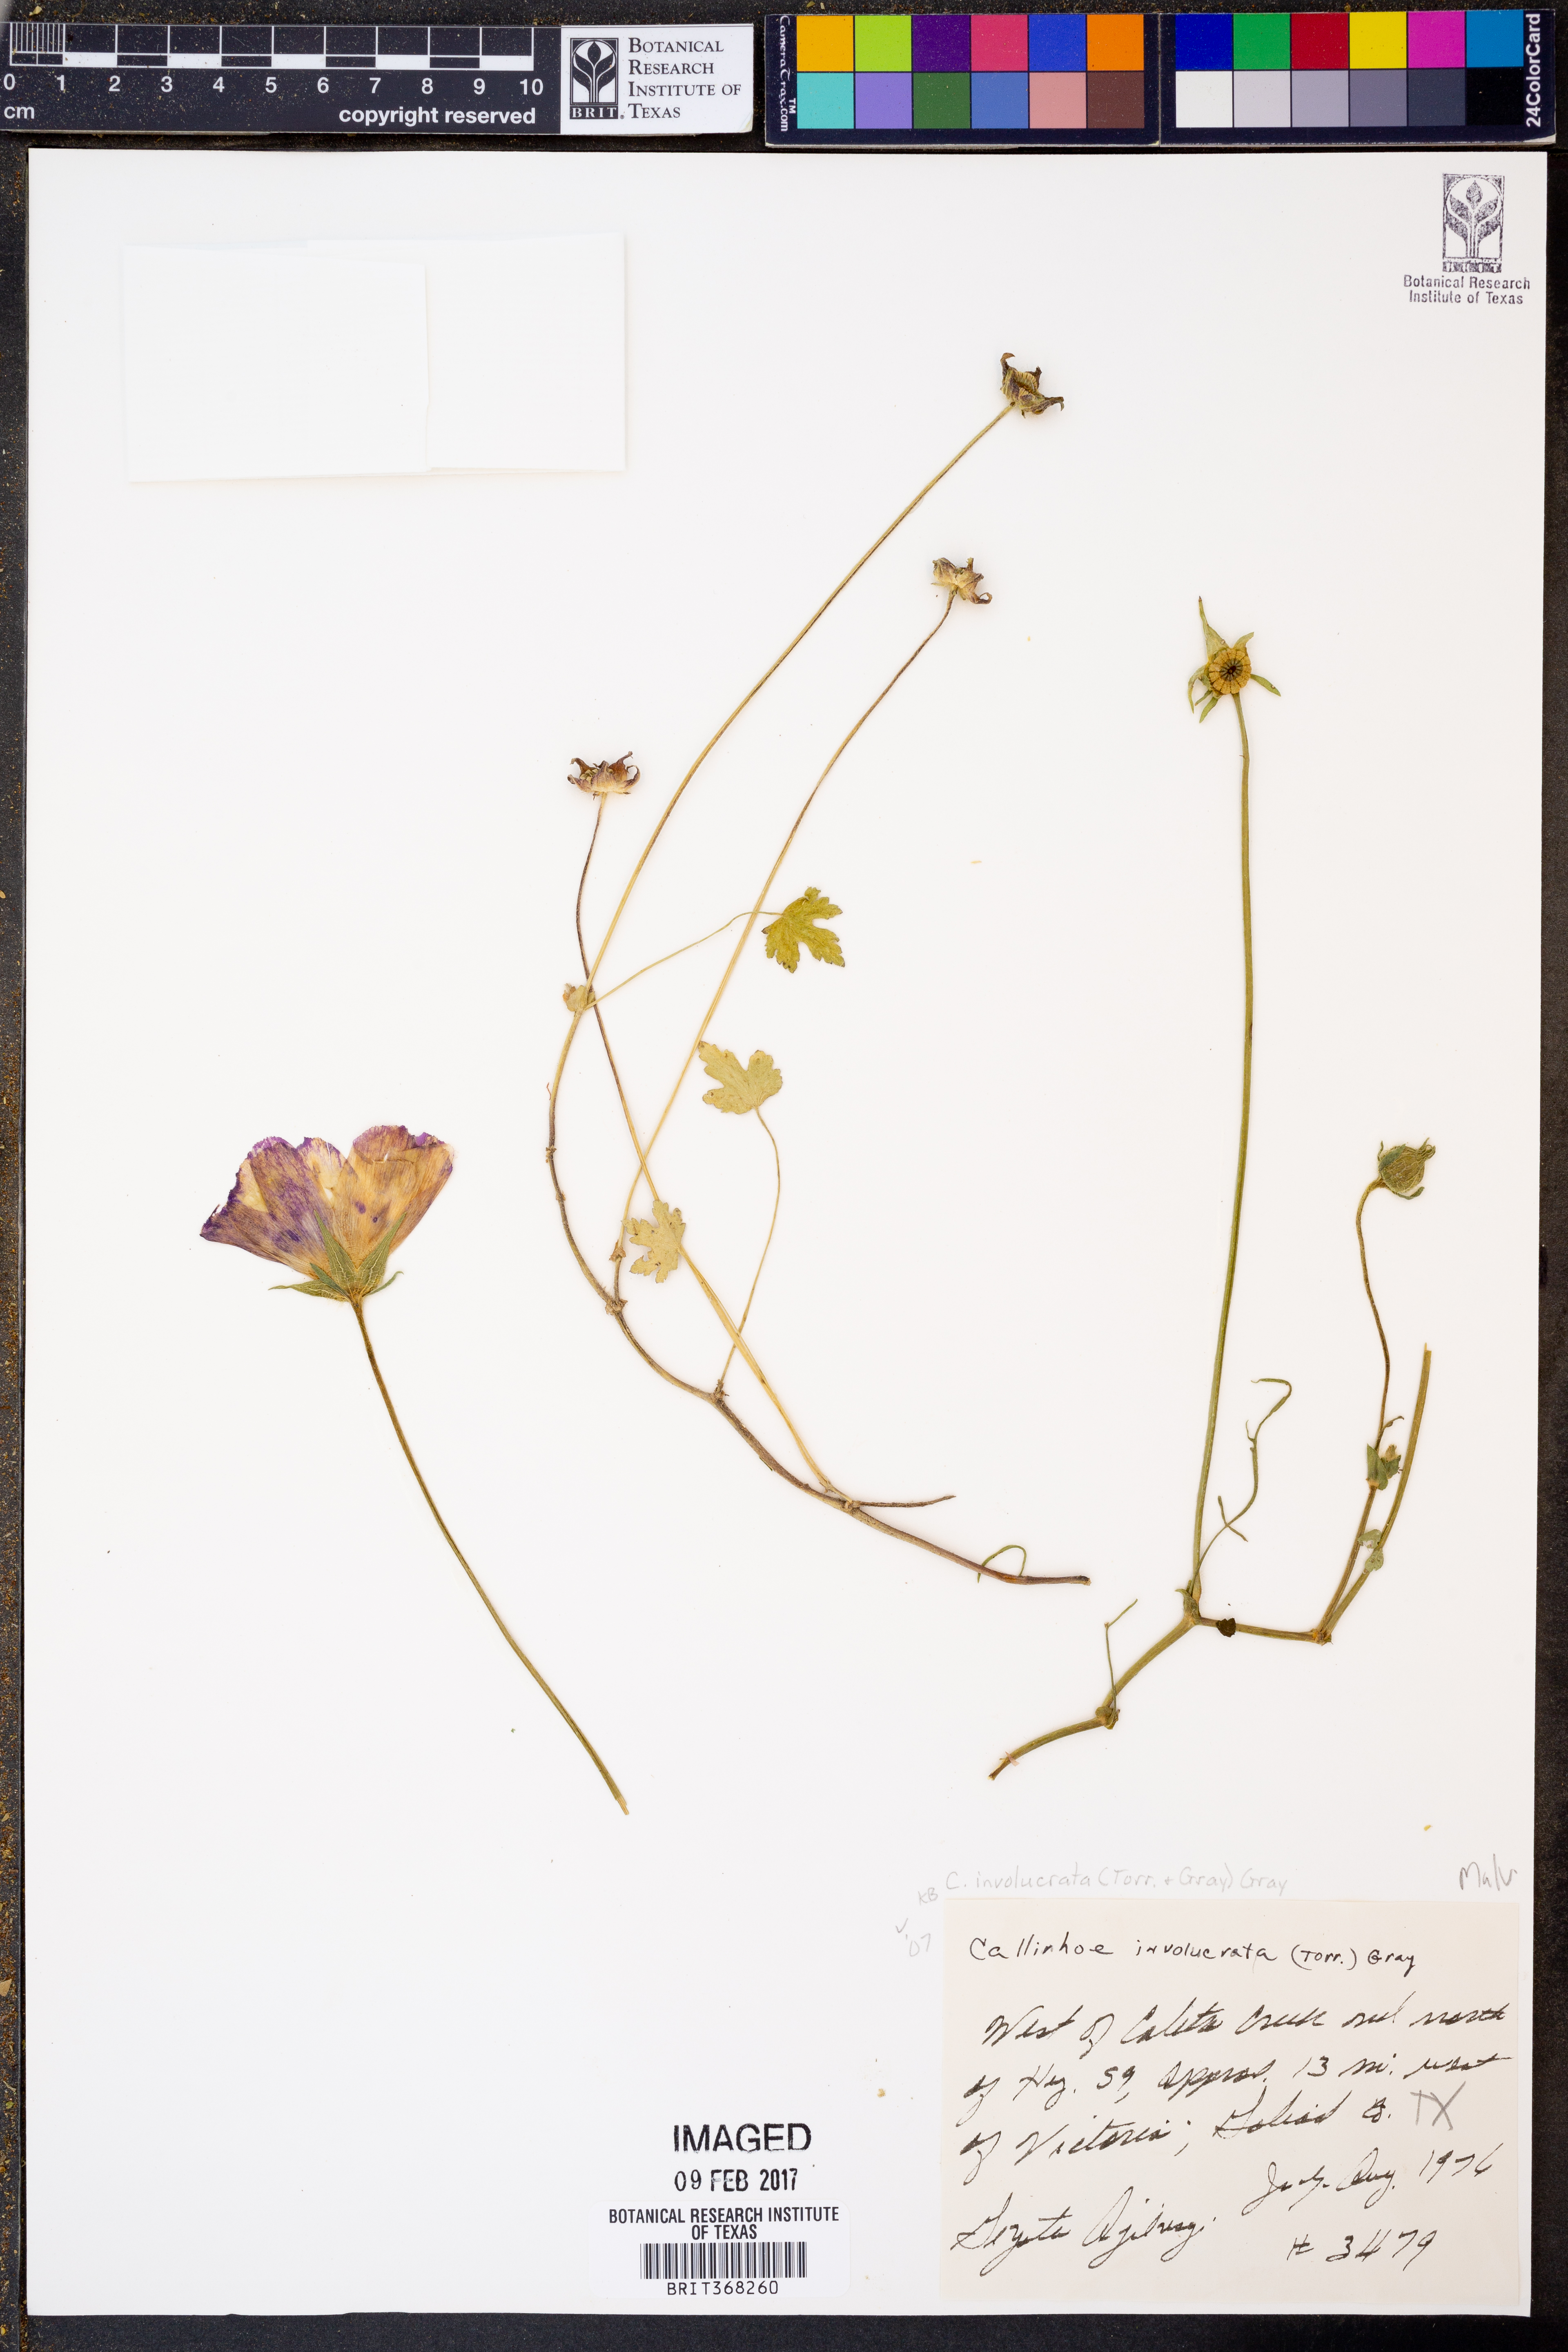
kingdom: Plantae
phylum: Tracheophyta
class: Magnoliopsida
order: Malvales
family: Malvaceae
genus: Callirhoe
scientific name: Callirhoe involucrata
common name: Purple poppy-mallow
